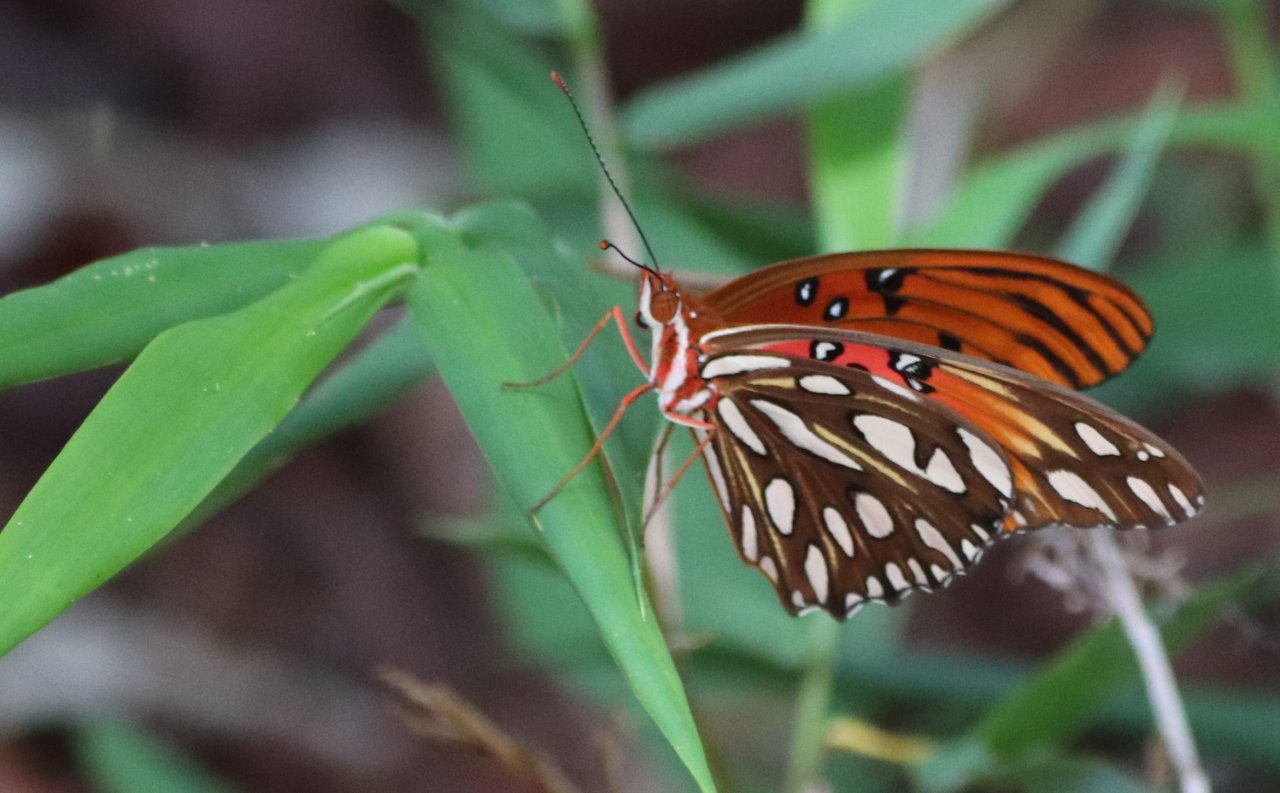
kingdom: Animalia
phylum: Arthropoda
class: Insecta
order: Lepidoptera
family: Nymphalidae
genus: Dione
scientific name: Dione vanillae
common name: Gulf Fritillary
